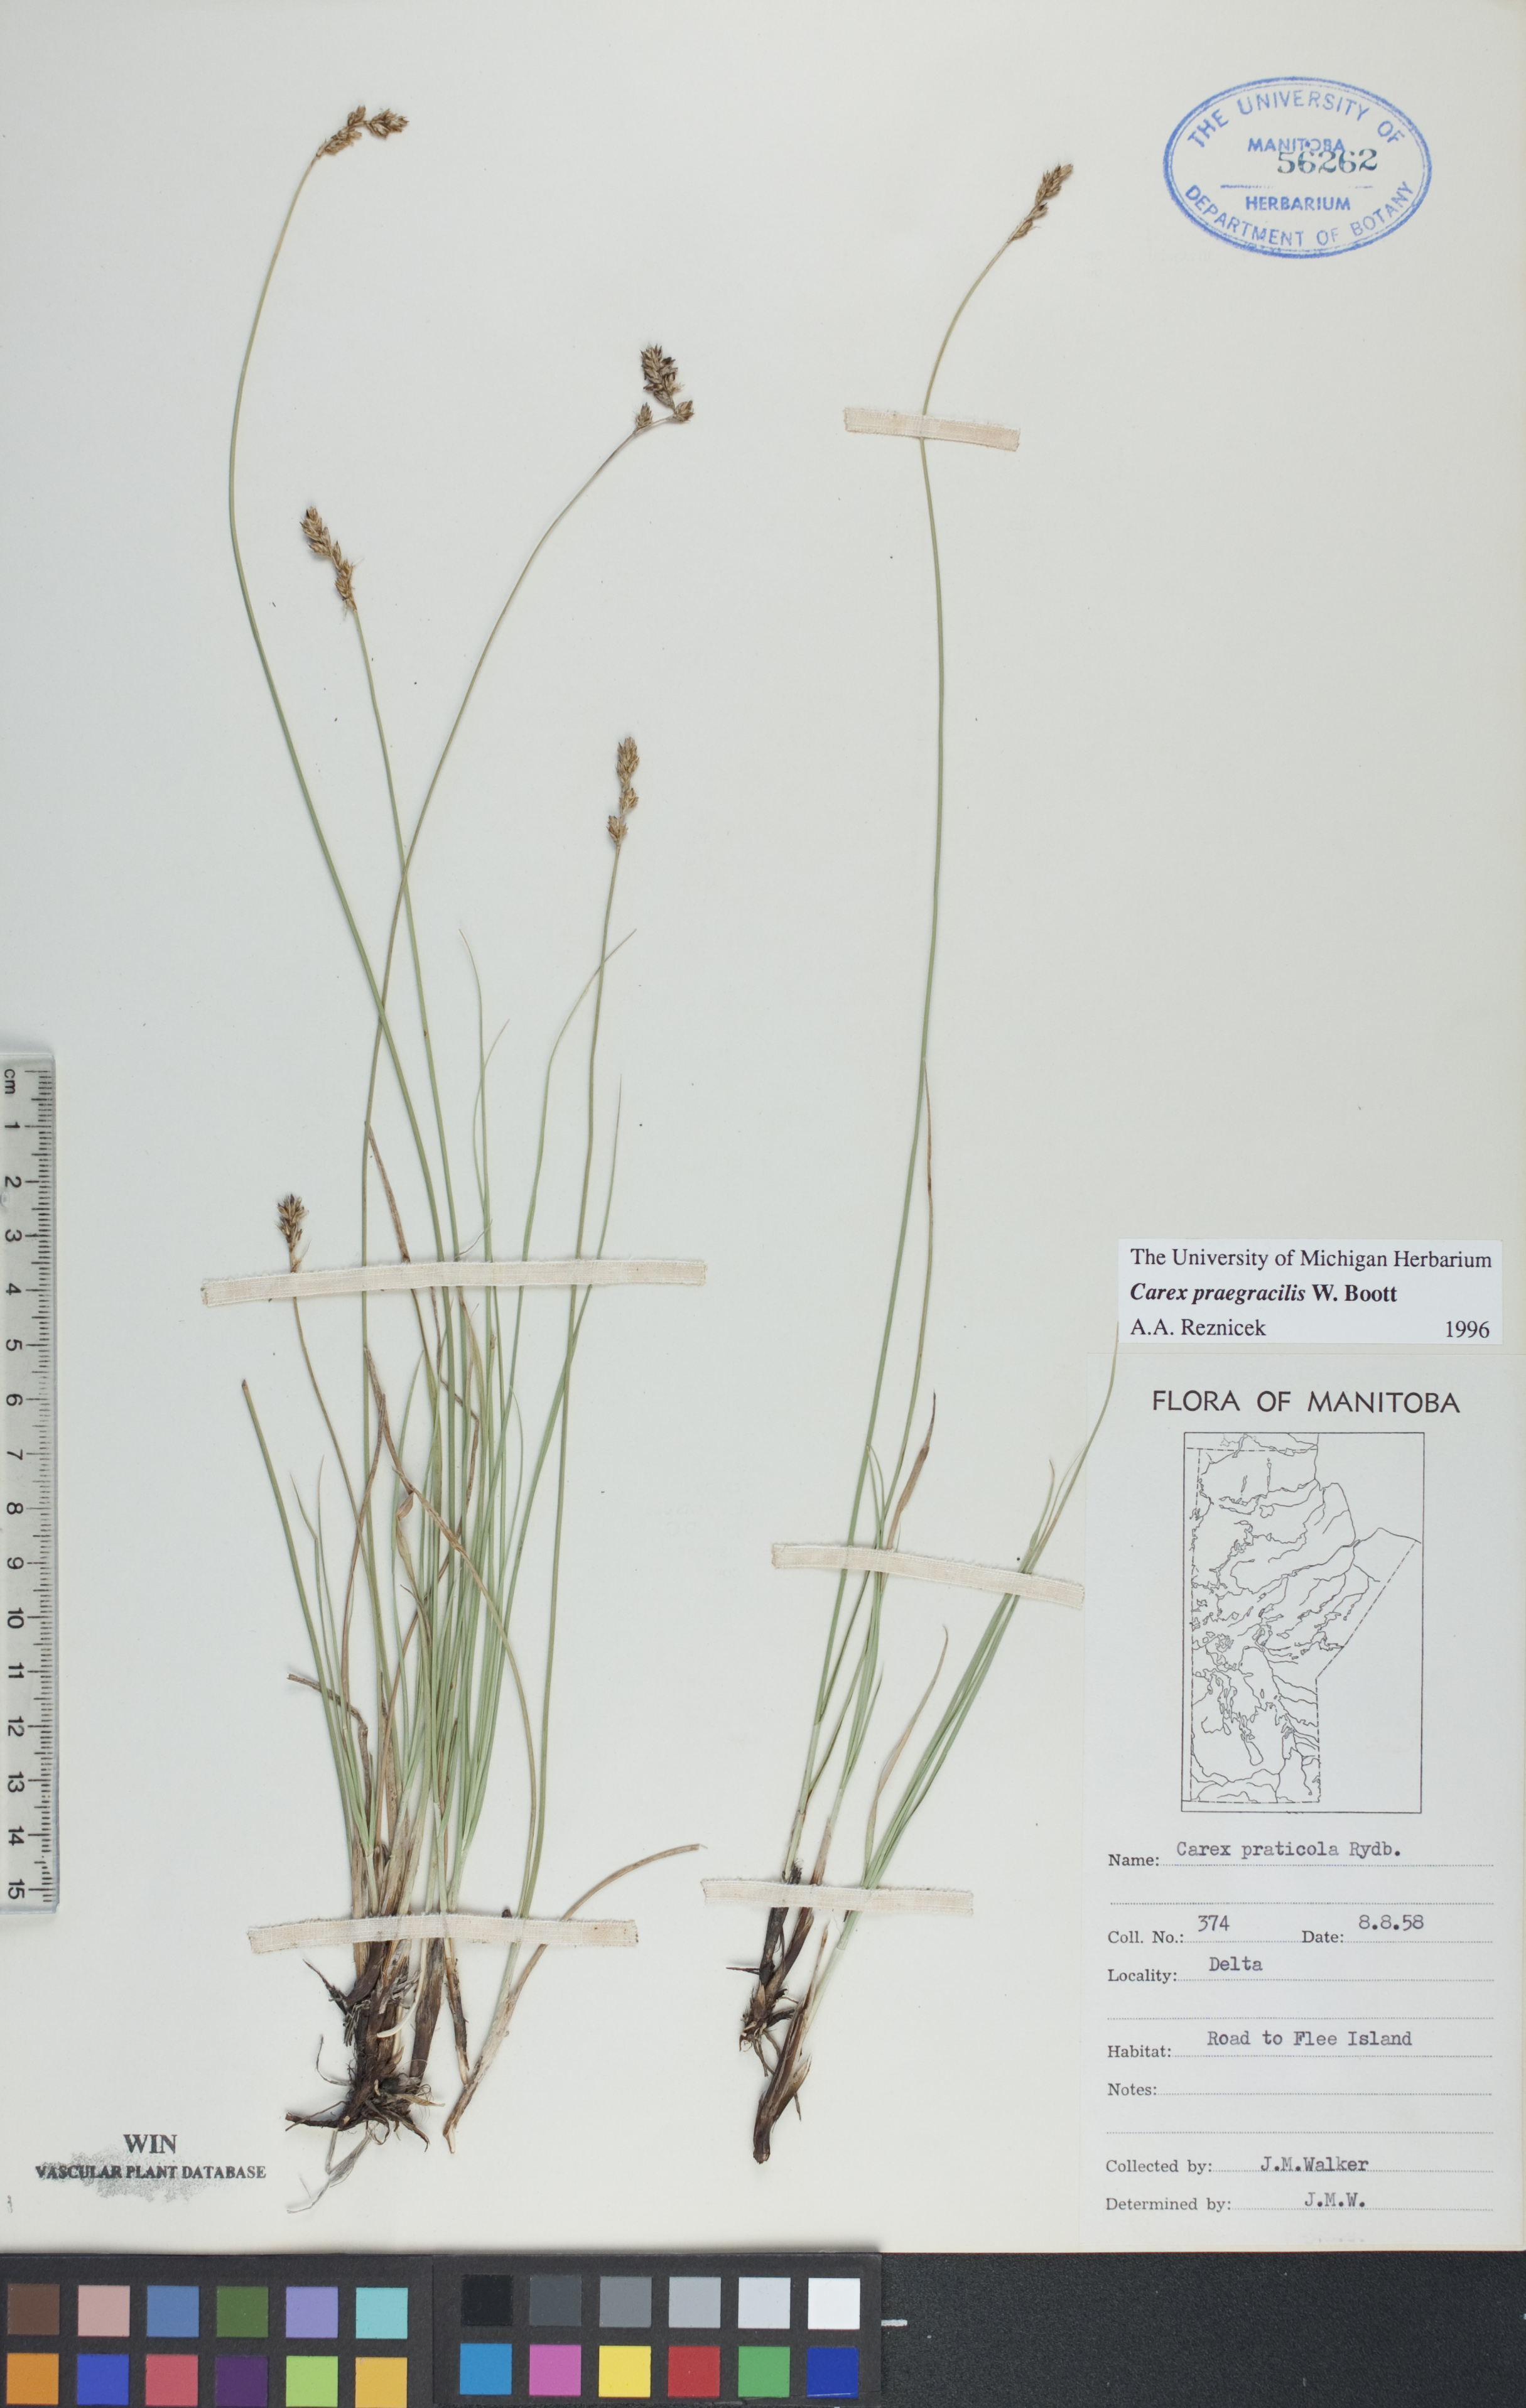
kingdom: Plantae
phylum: Tracheophyta
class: Liliopsida
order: Poales
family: Cyperaceae
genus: Carex
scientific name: Carex praegracilis
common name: Black creeper sedge
